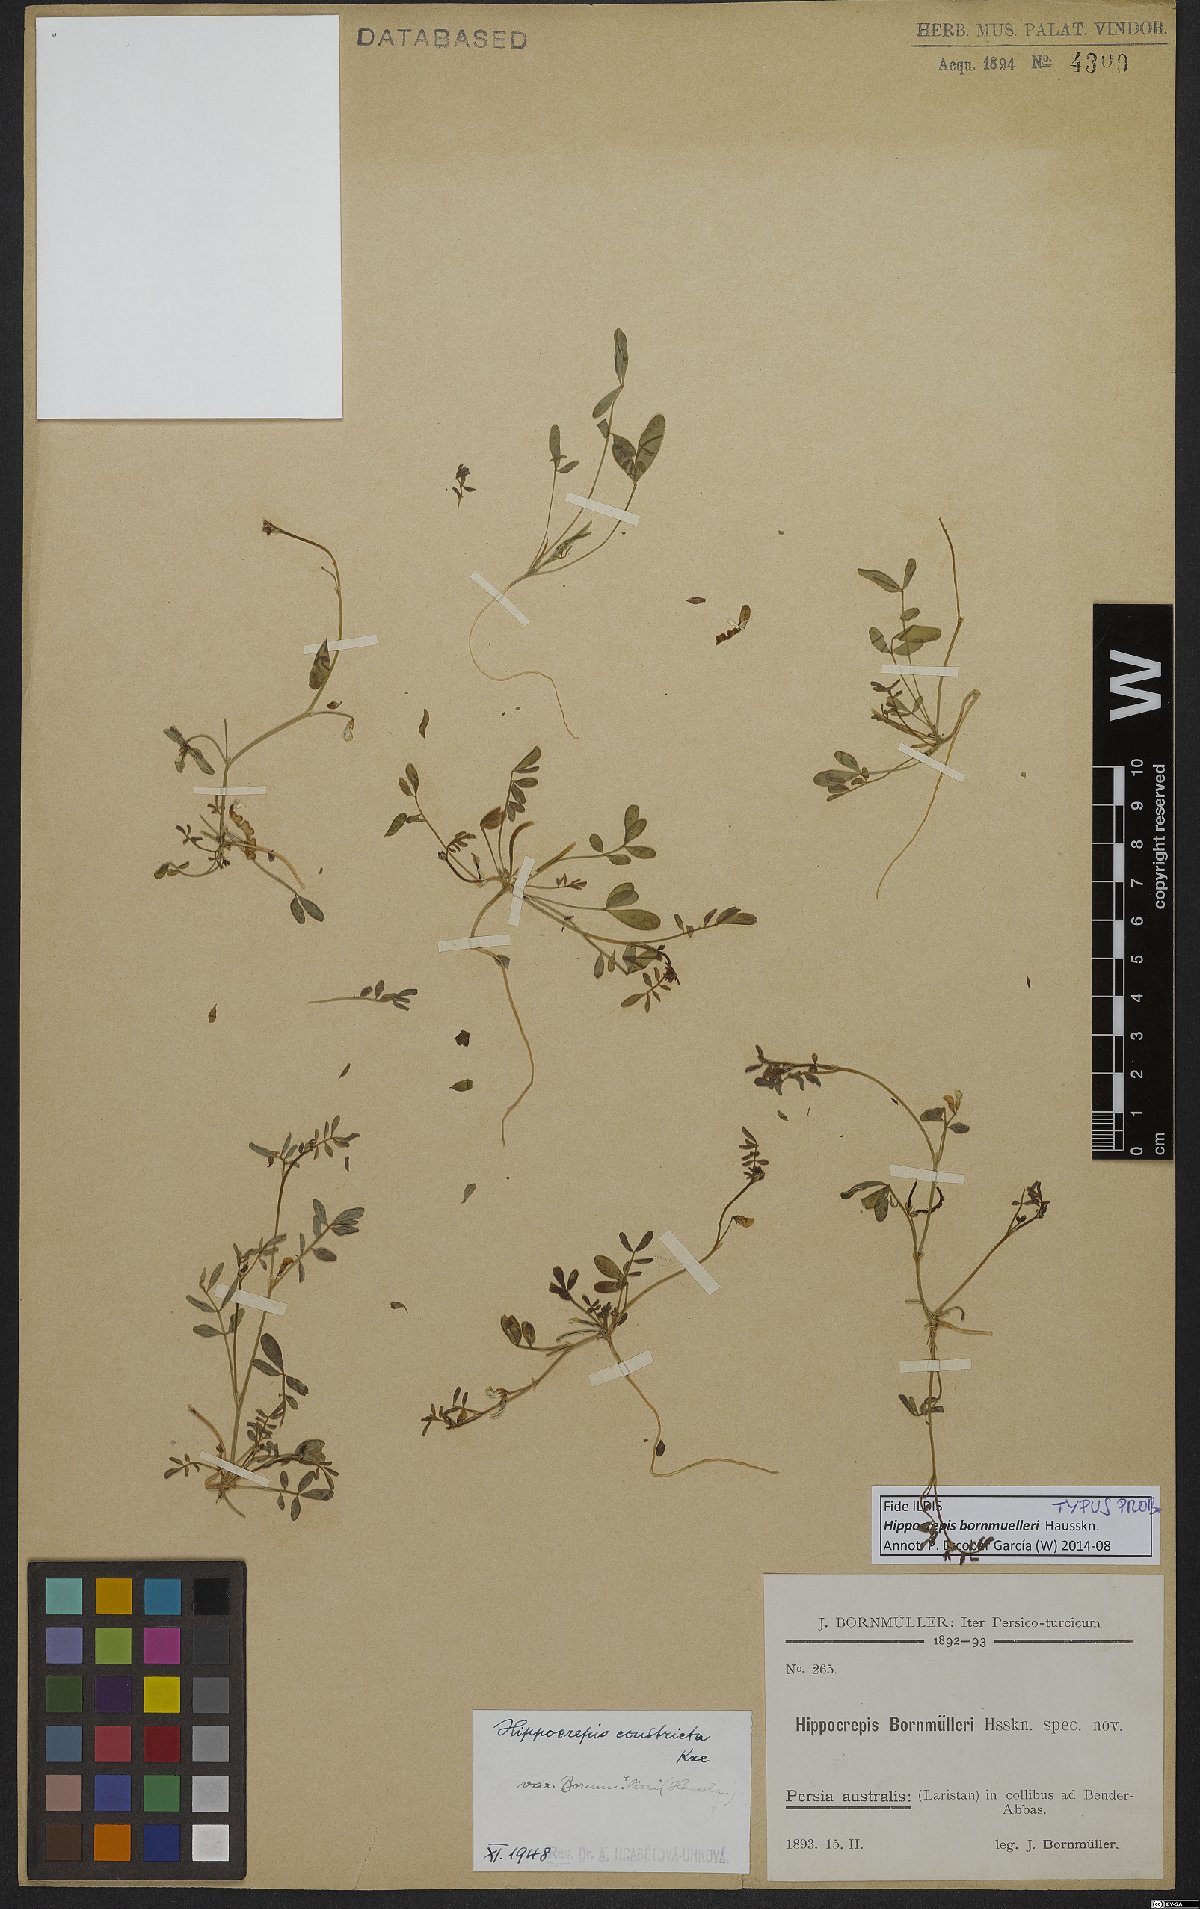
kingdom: Plantae
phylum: Tracheophyta
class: Magnoliopsida
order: Fabales
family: Fabaceae
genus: Hippocrepis
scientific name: Hippocrepis constricta
